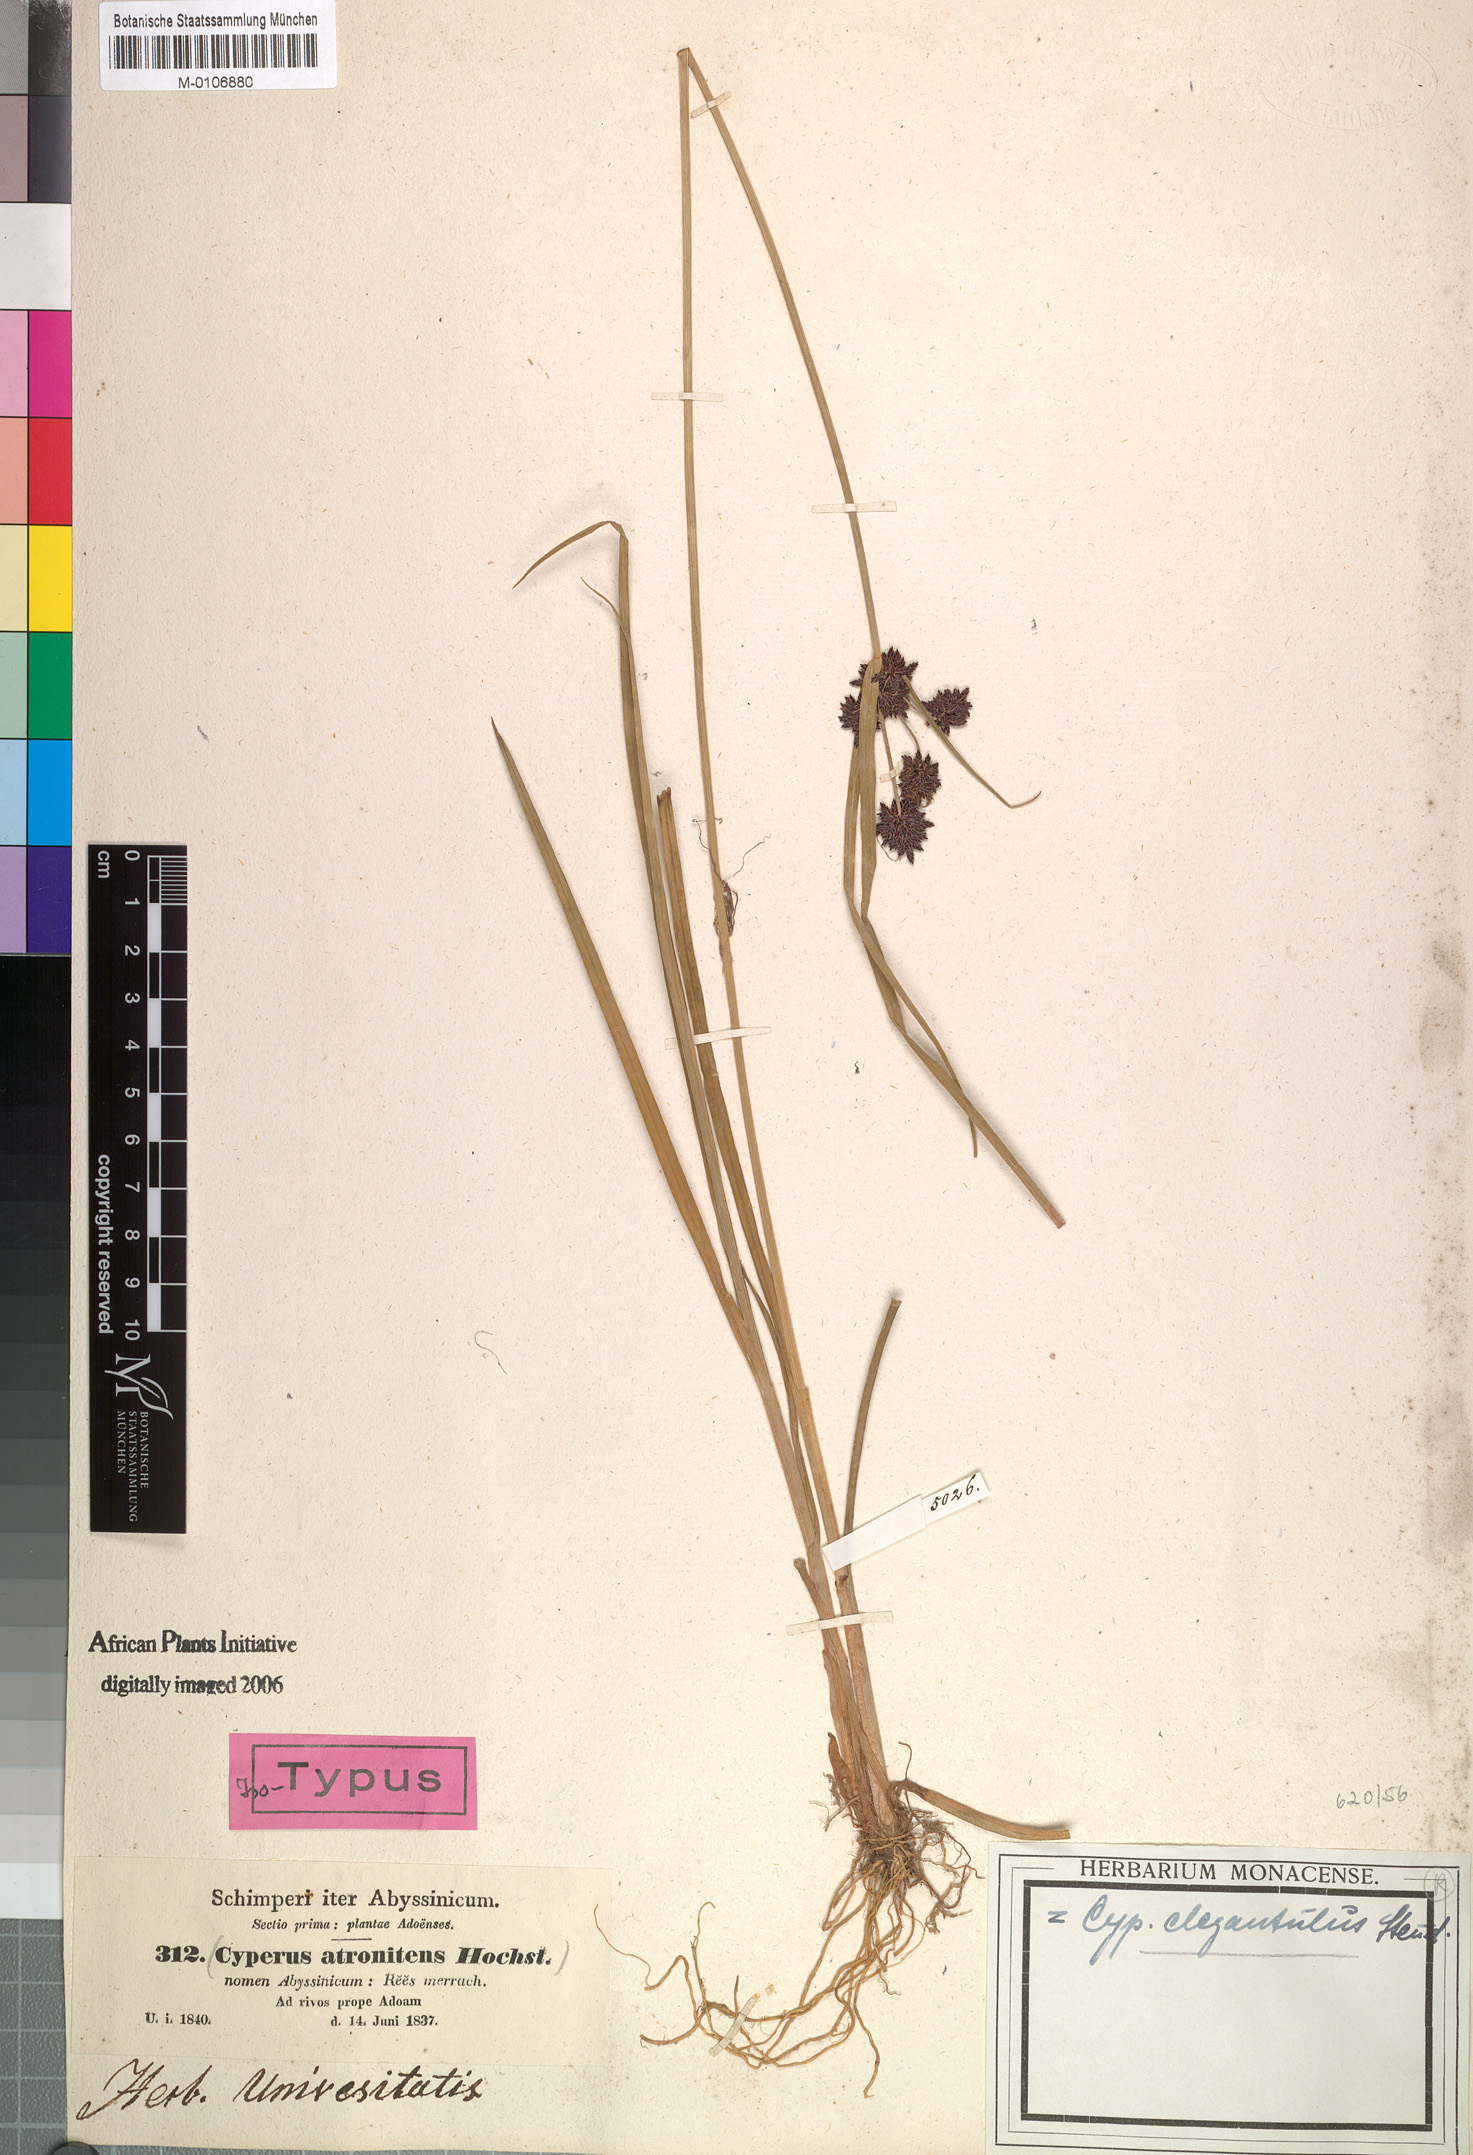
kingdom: Plantae
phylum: Tracheophyta
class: Liliopsida
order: Poales
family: Cyperaceae
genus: Cyperus
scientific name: Cyperus elegantulus
